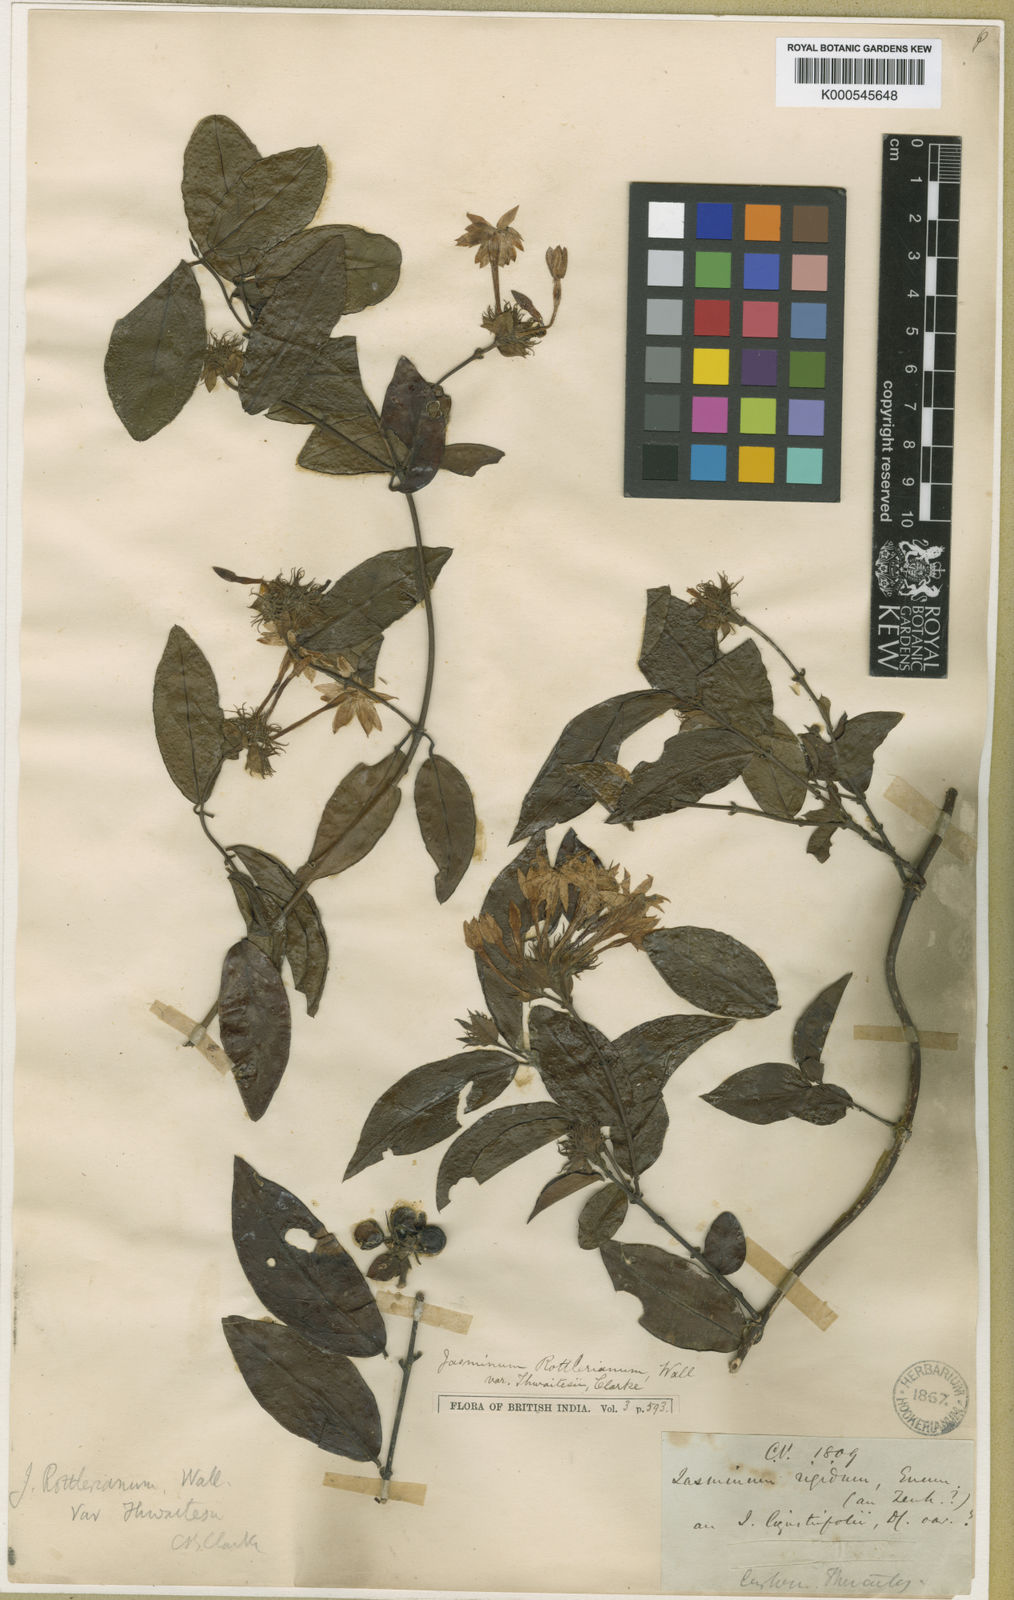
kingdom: Plantae
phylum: Tracheophyta
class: Magnoliopsida
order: Lamiales
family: Oleaceae
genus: Jasminum
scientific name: Jasminum coarctatum
